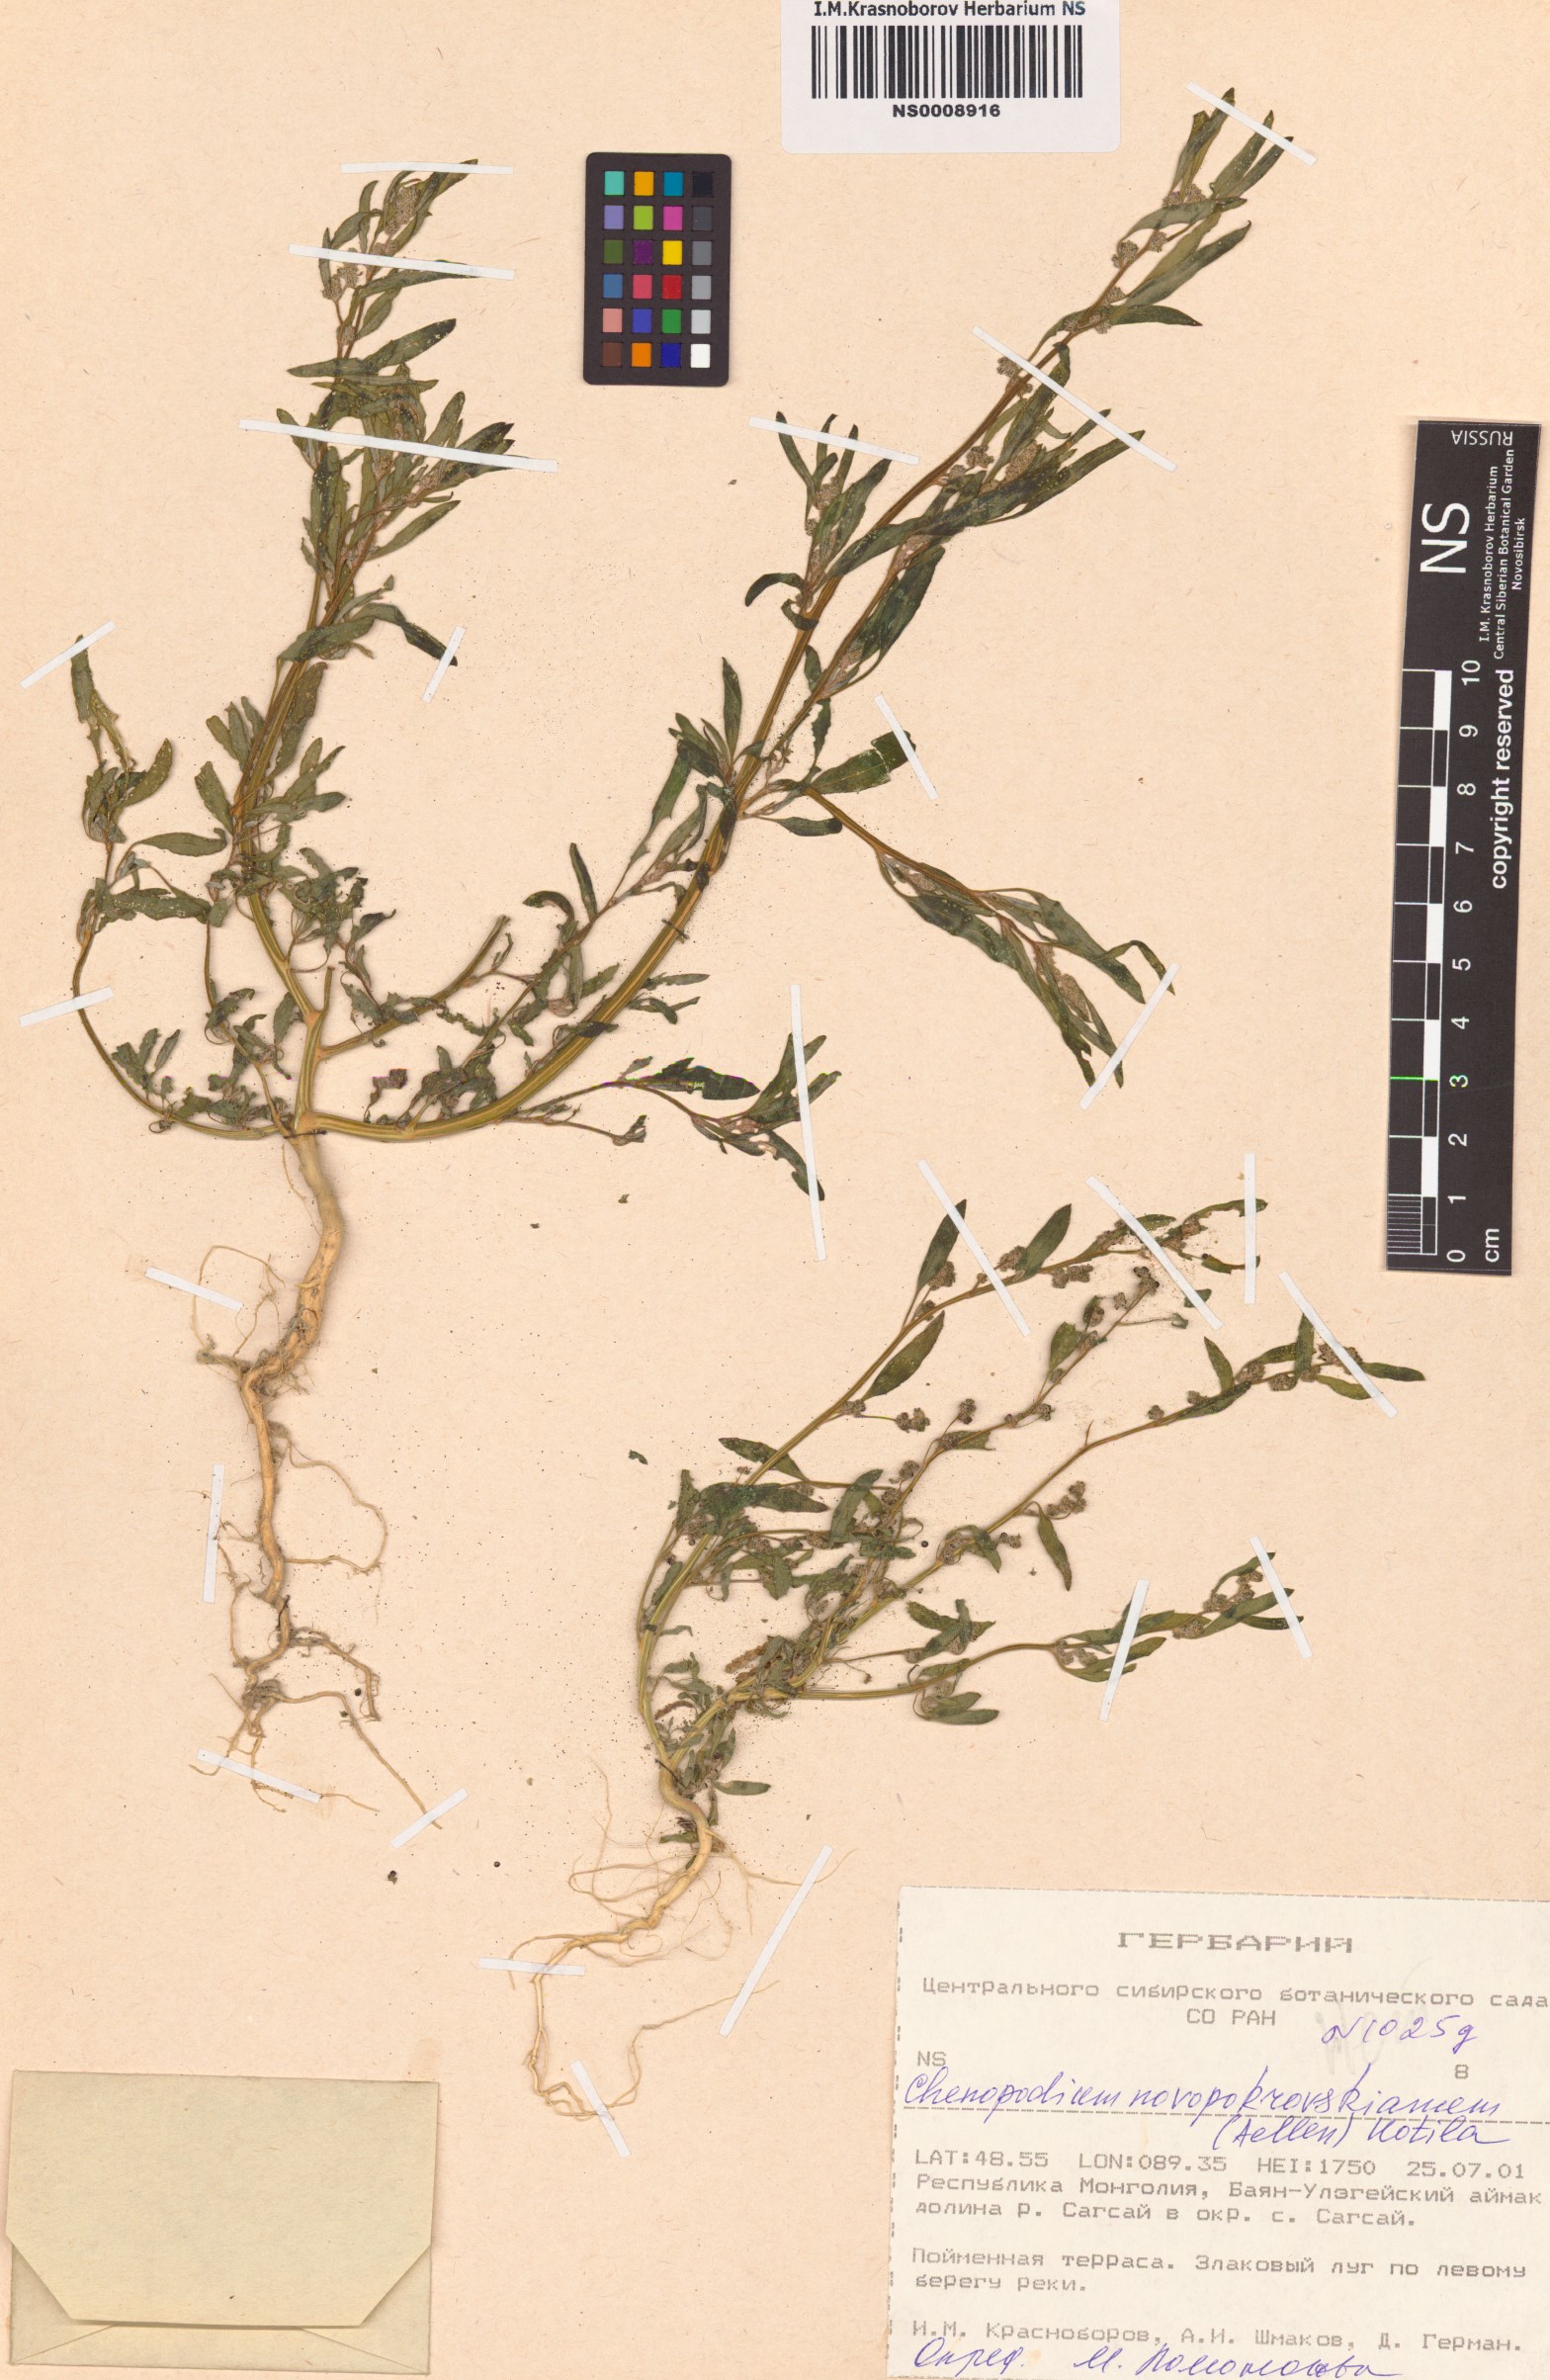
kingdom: Plantae
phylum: Tracheophyta
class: Magnoliopsida
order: Caryophyllales
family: Amaranthaceae
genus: Chenopodium
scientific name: Chenopodium novopokrovskyanum
